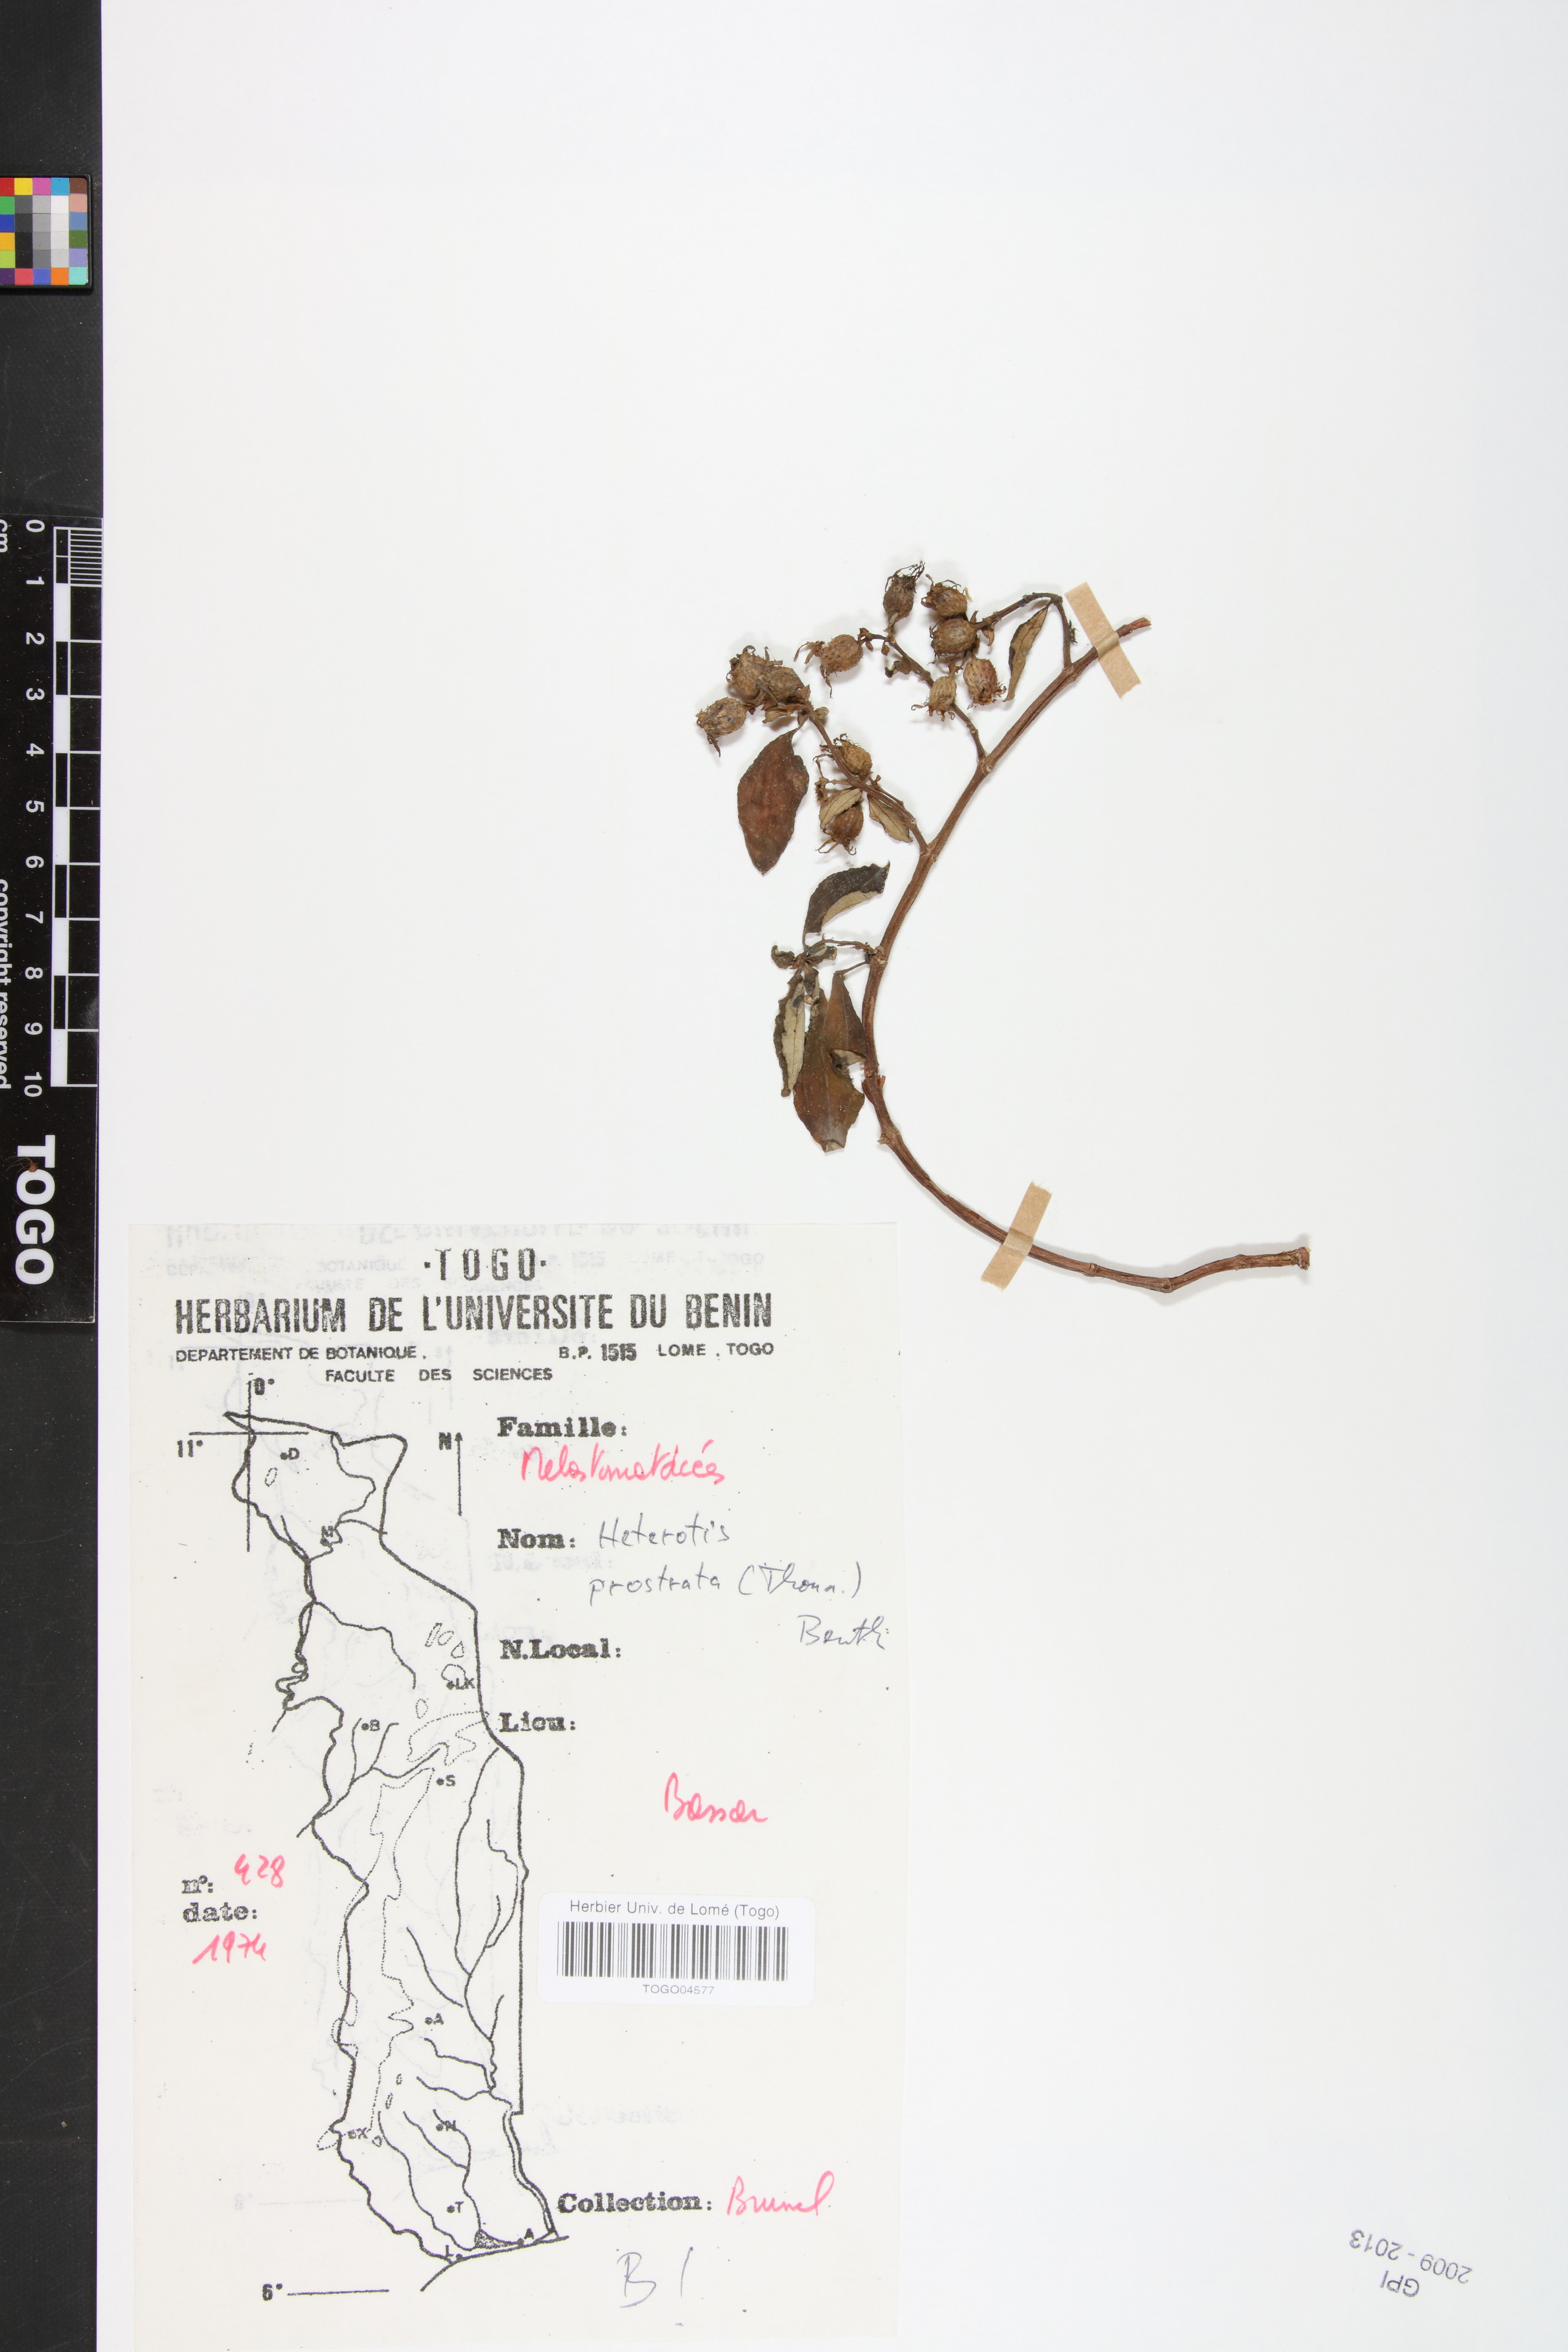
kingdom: Plantae
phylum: Tracheophyta
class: Magnoliopsida
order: Myrtales
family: Melastomataceae
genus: Heterotis
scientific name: Heterotis prostrata
